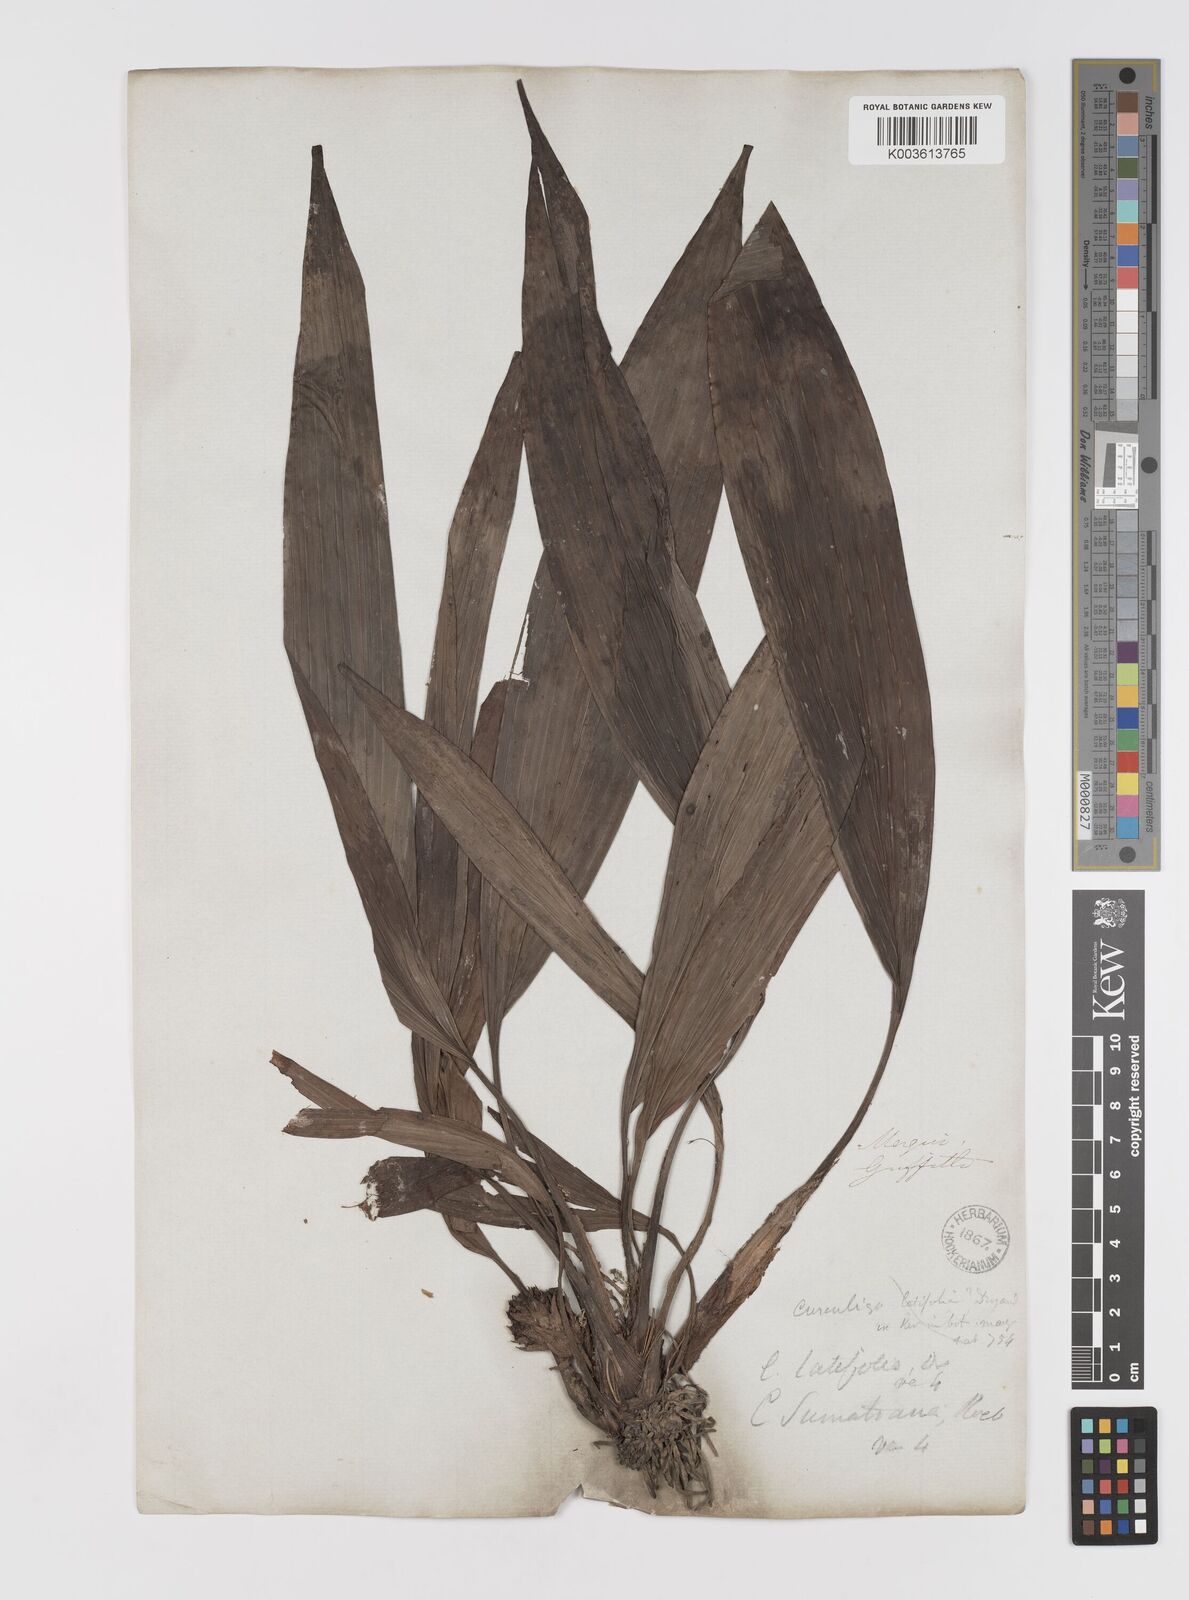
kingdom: Plantae
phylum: Tracheophyta
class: Liliopsida
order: Asparagales
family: Hypoxidaceae
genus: Curculigo
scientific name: Curculigo latifolia
